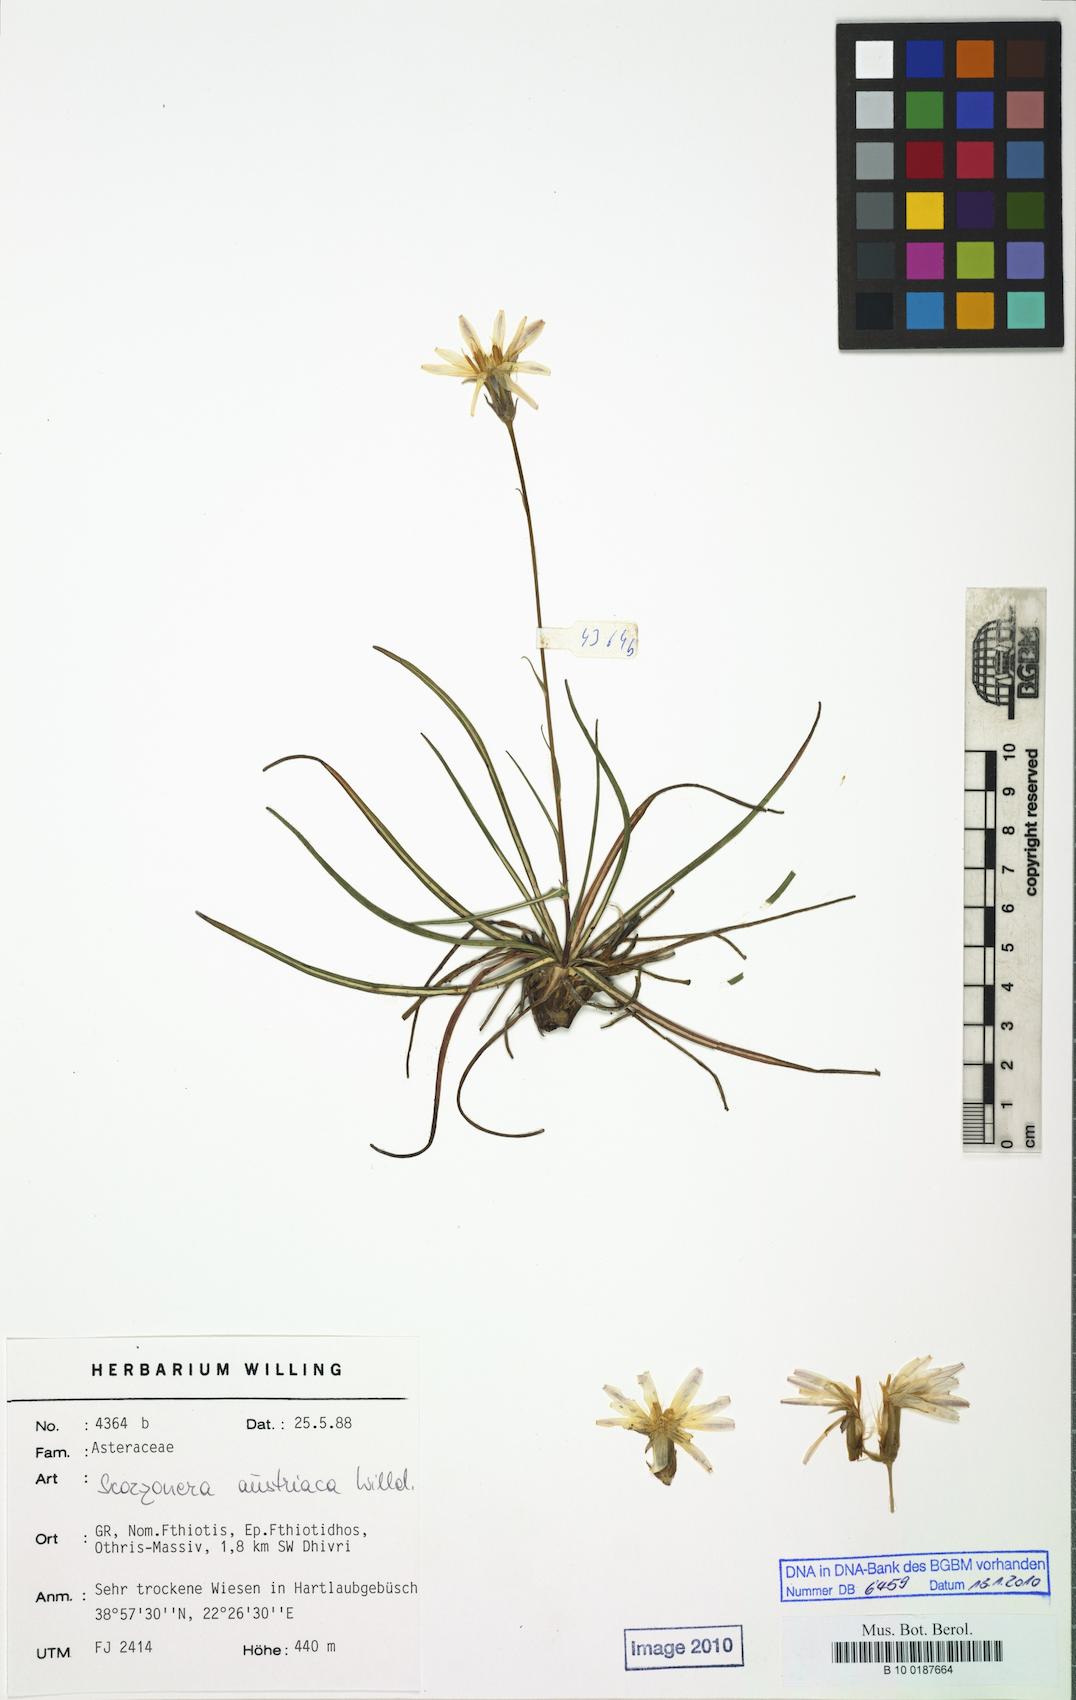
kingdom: Plantae
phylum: Tracheophyta
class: Magnoliopsida
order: Asterales
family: Asteraceae
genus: Pseudopodospermum
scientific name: Pseudopodospermum crocifolium
